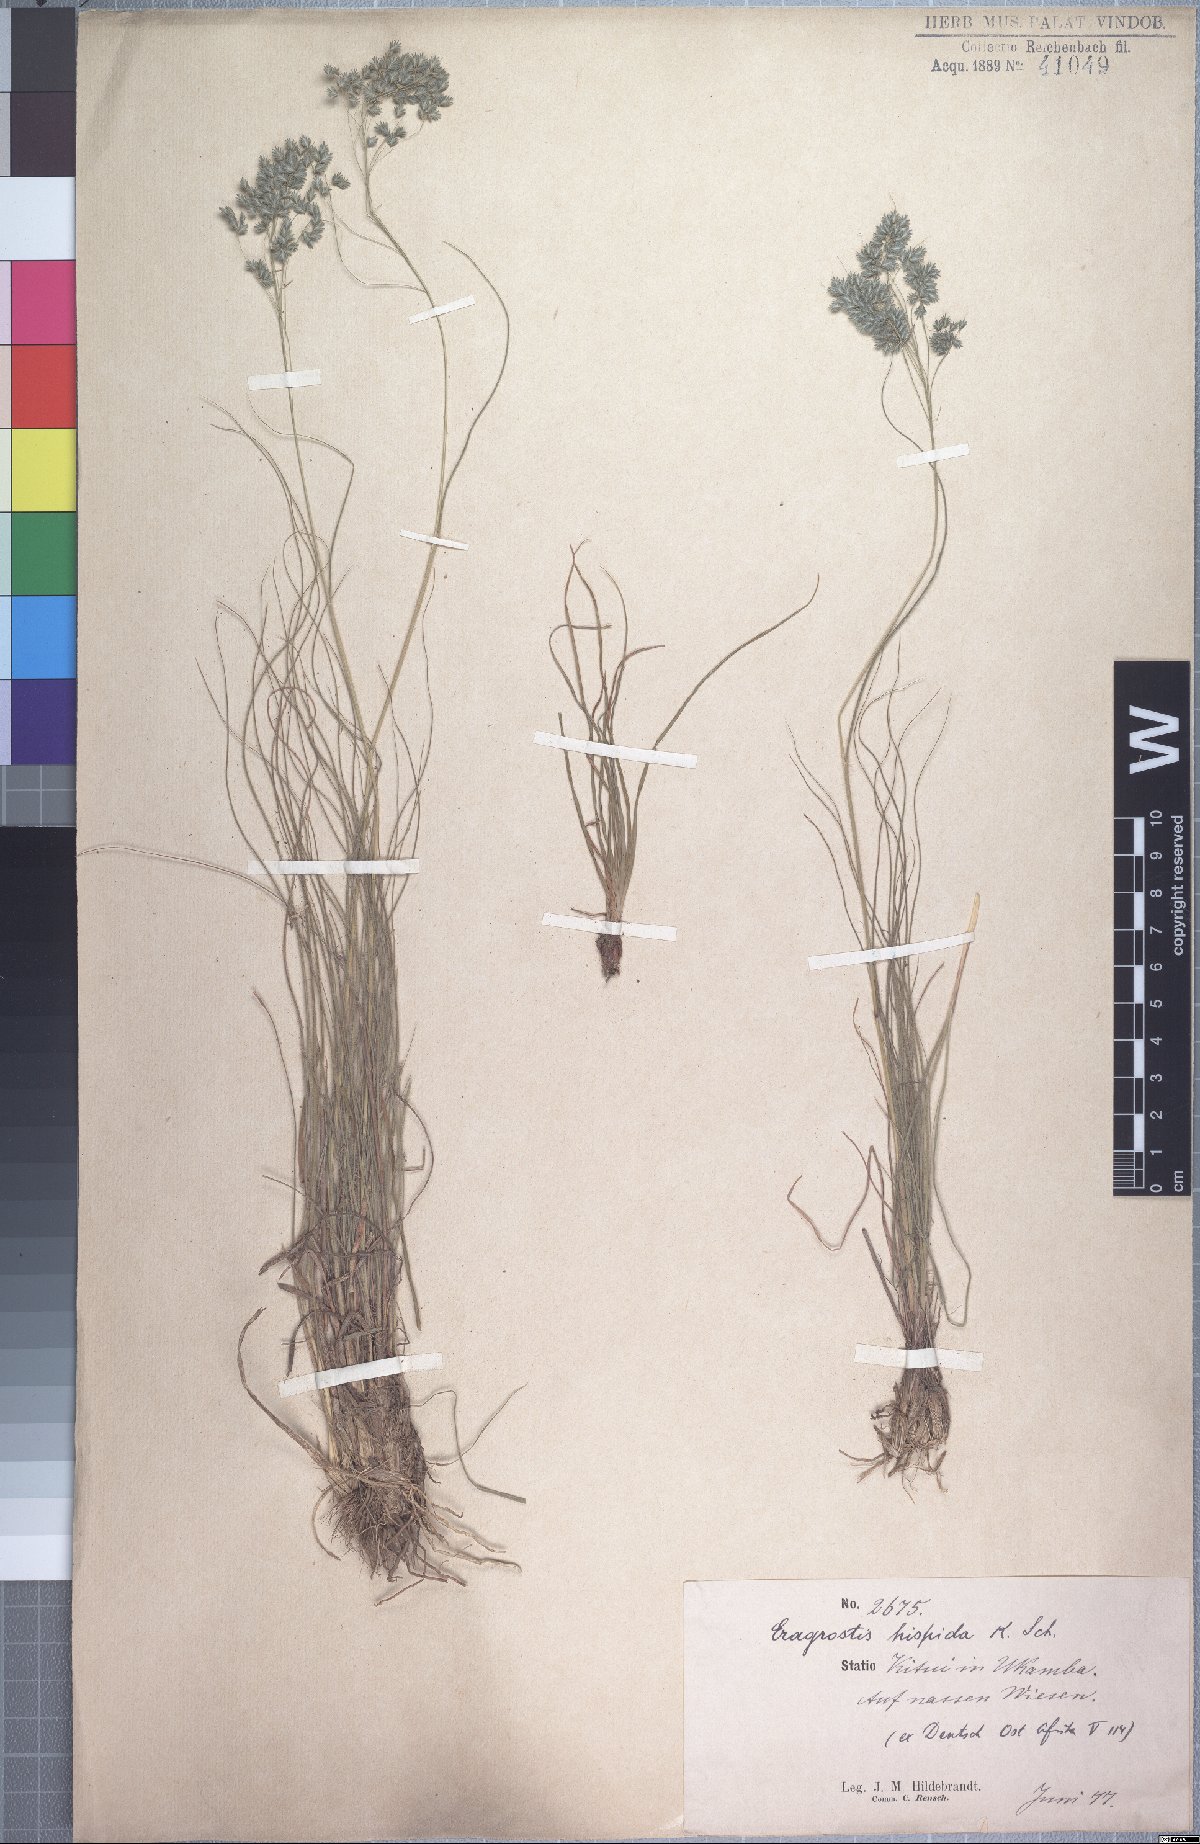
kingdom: Plantae
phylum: Tracheophyta
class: Liliopsida
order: Poales
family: Poaceae
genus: Eragrostis
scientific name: Eragrostis hispida
